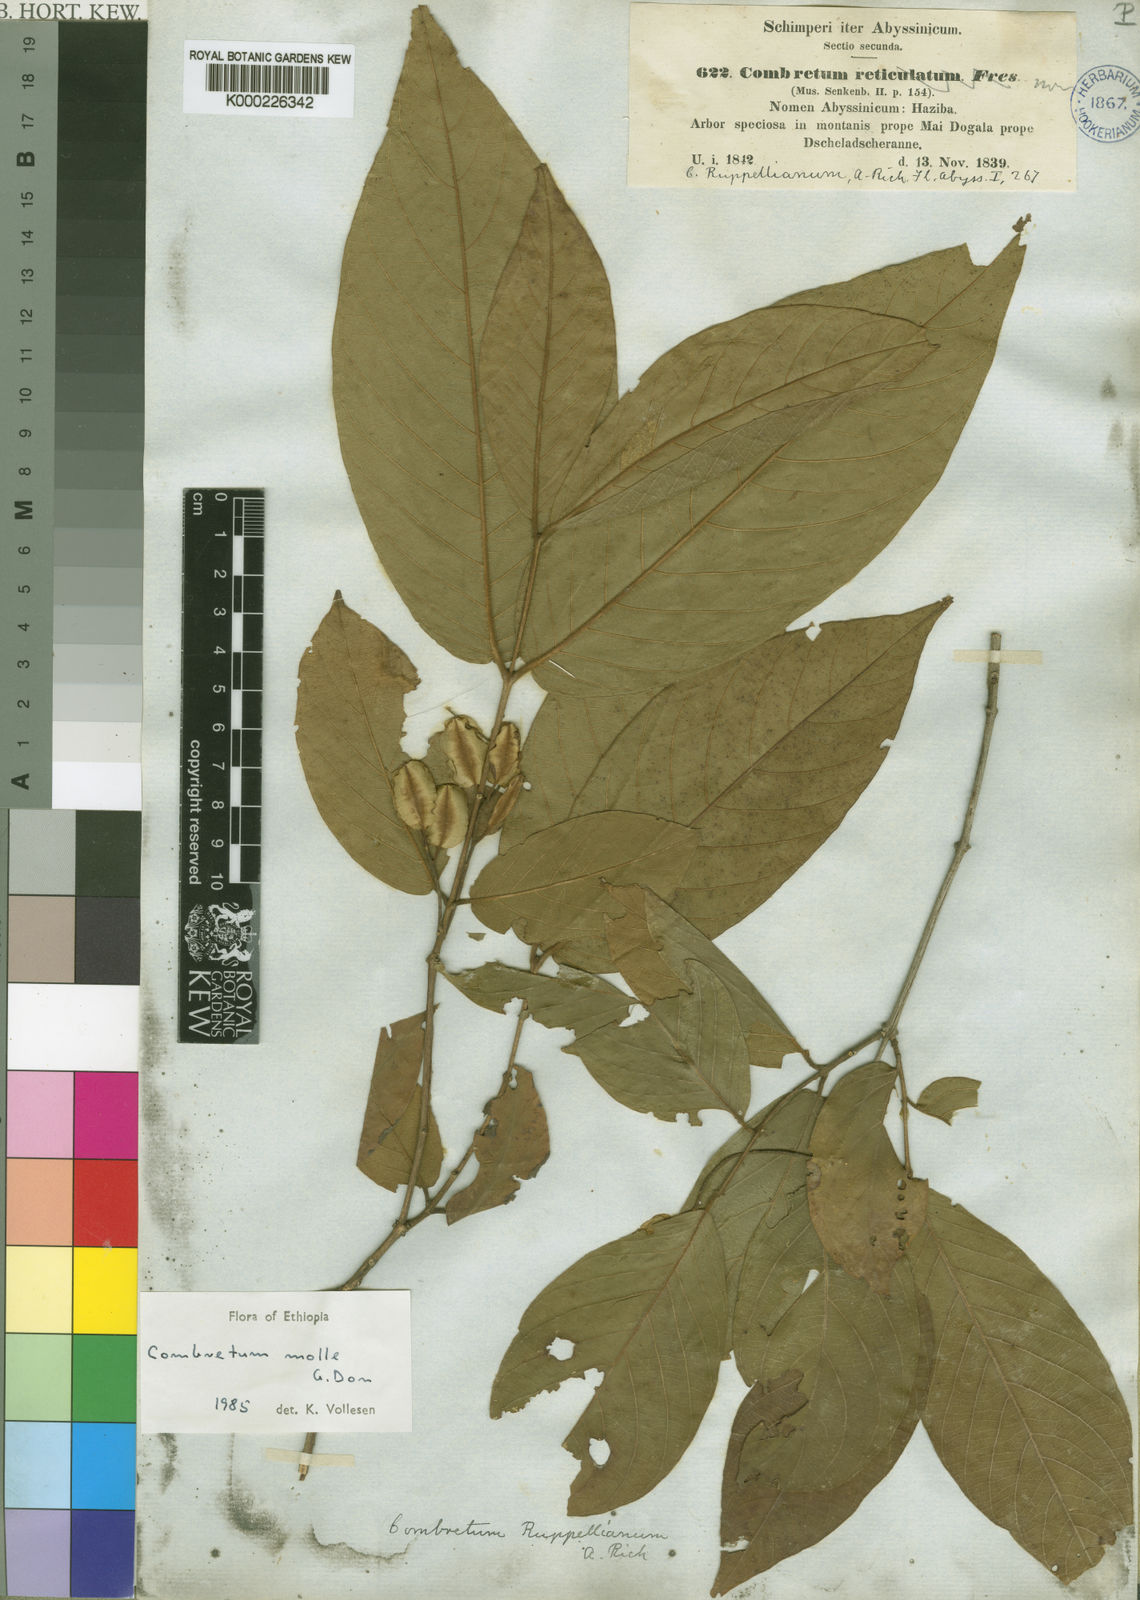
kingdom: Plantae
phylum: Tracheophyta
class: Magnoliopsida
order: Myrtales
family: Combretaceae
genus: Combretum
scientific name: Combretum molle
